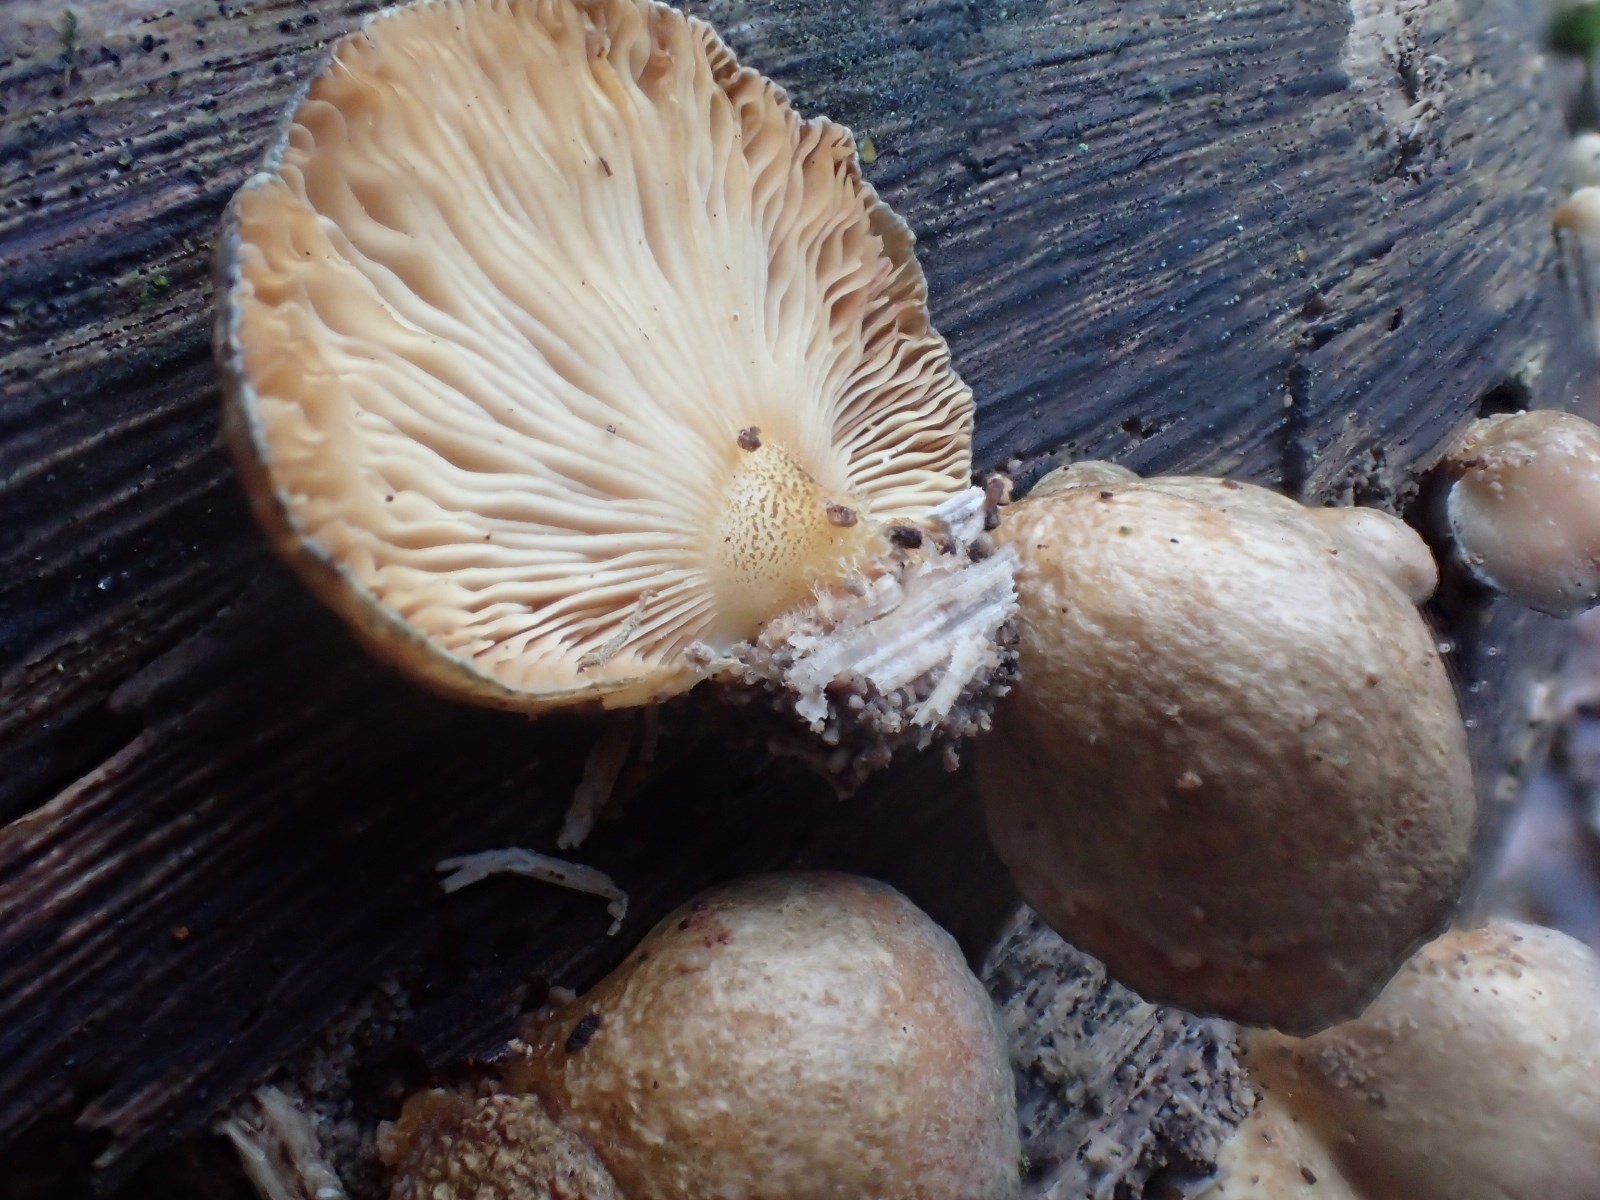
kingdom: Fungi
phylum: Basidiomycota
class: Agaricomycetes
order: Agaricales
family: Sarcomyxaceae
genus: Sarcomyxa
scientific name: Sarcomyxa serotina
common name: gummihat
